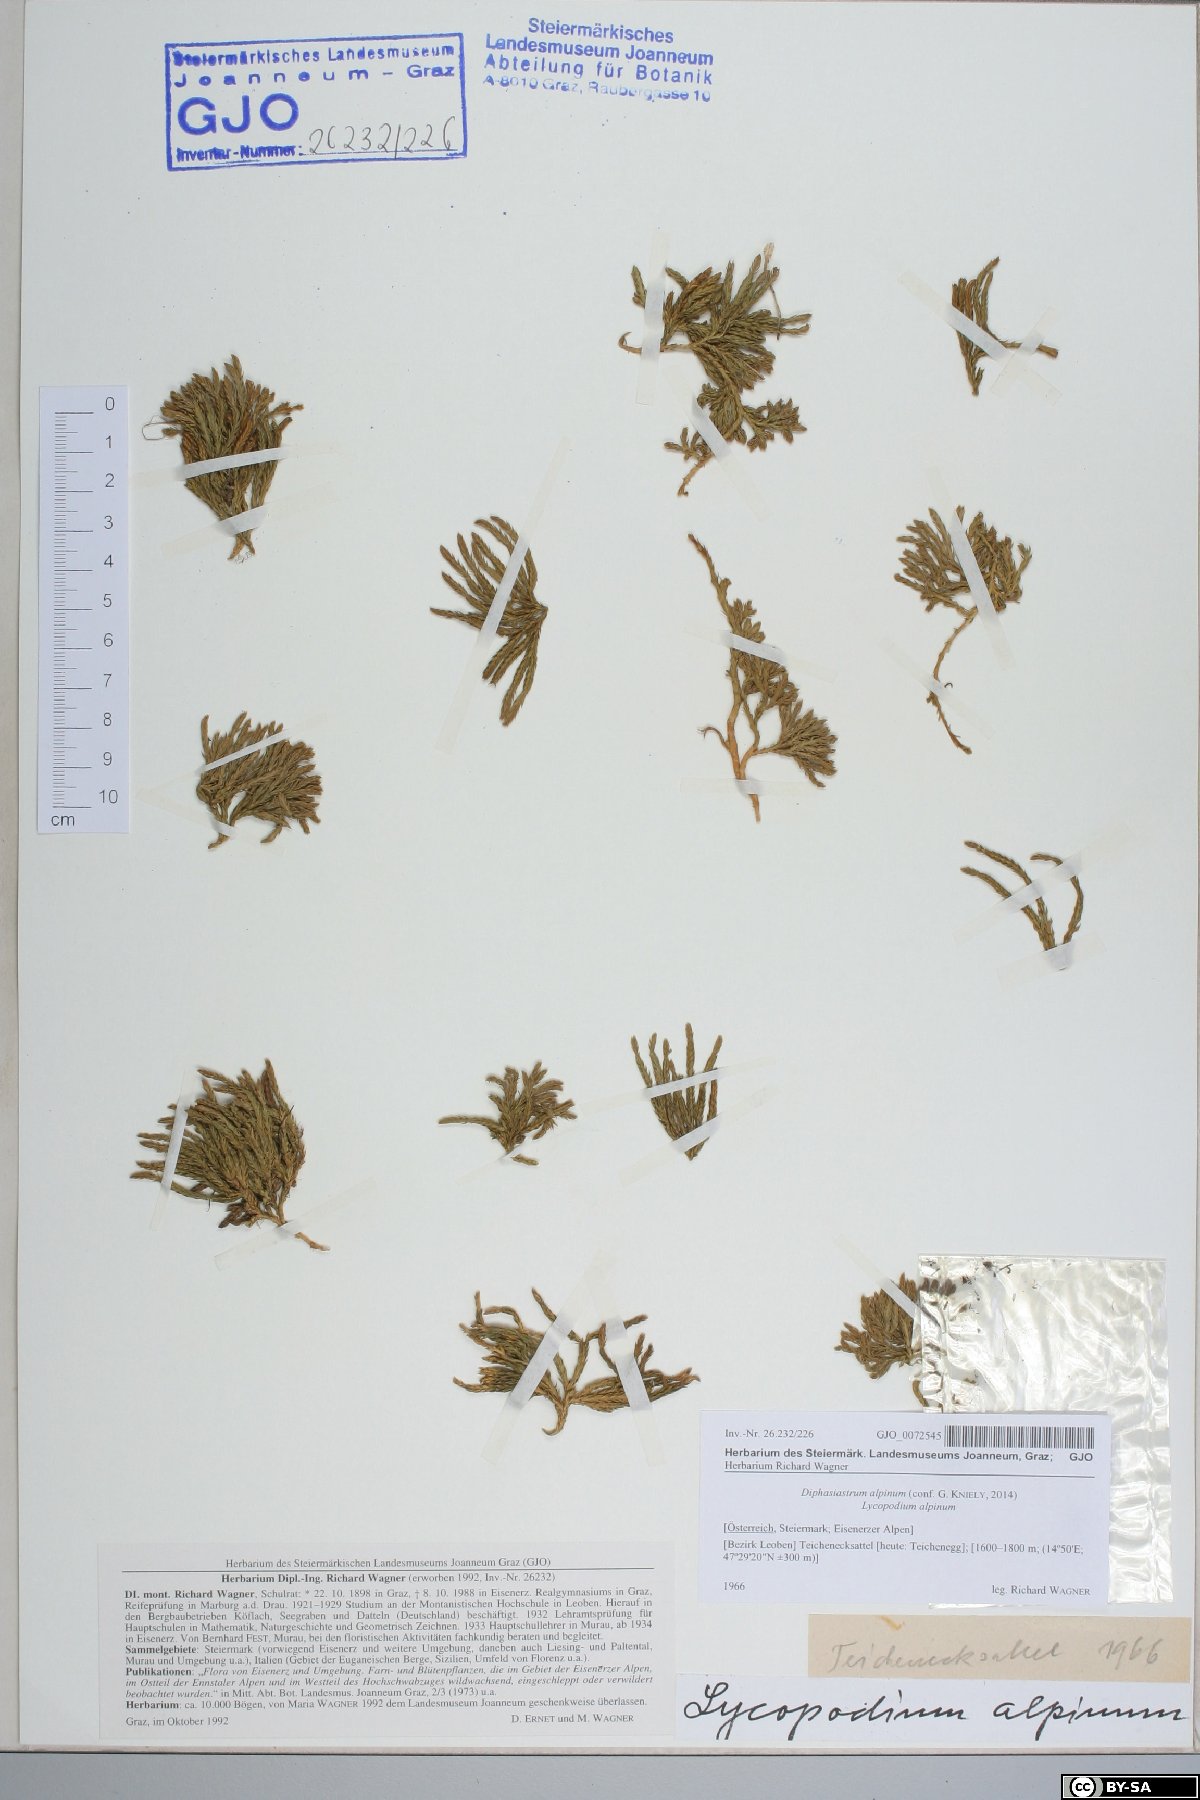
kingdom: Plantae
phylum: Tracheophyta
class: Lycopodiopsida
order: Lycopodiales
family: Lycopodiaceae
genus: Diphasiastrum
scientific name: Diphasiastrum alpinum
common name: Alpine clubmoss
